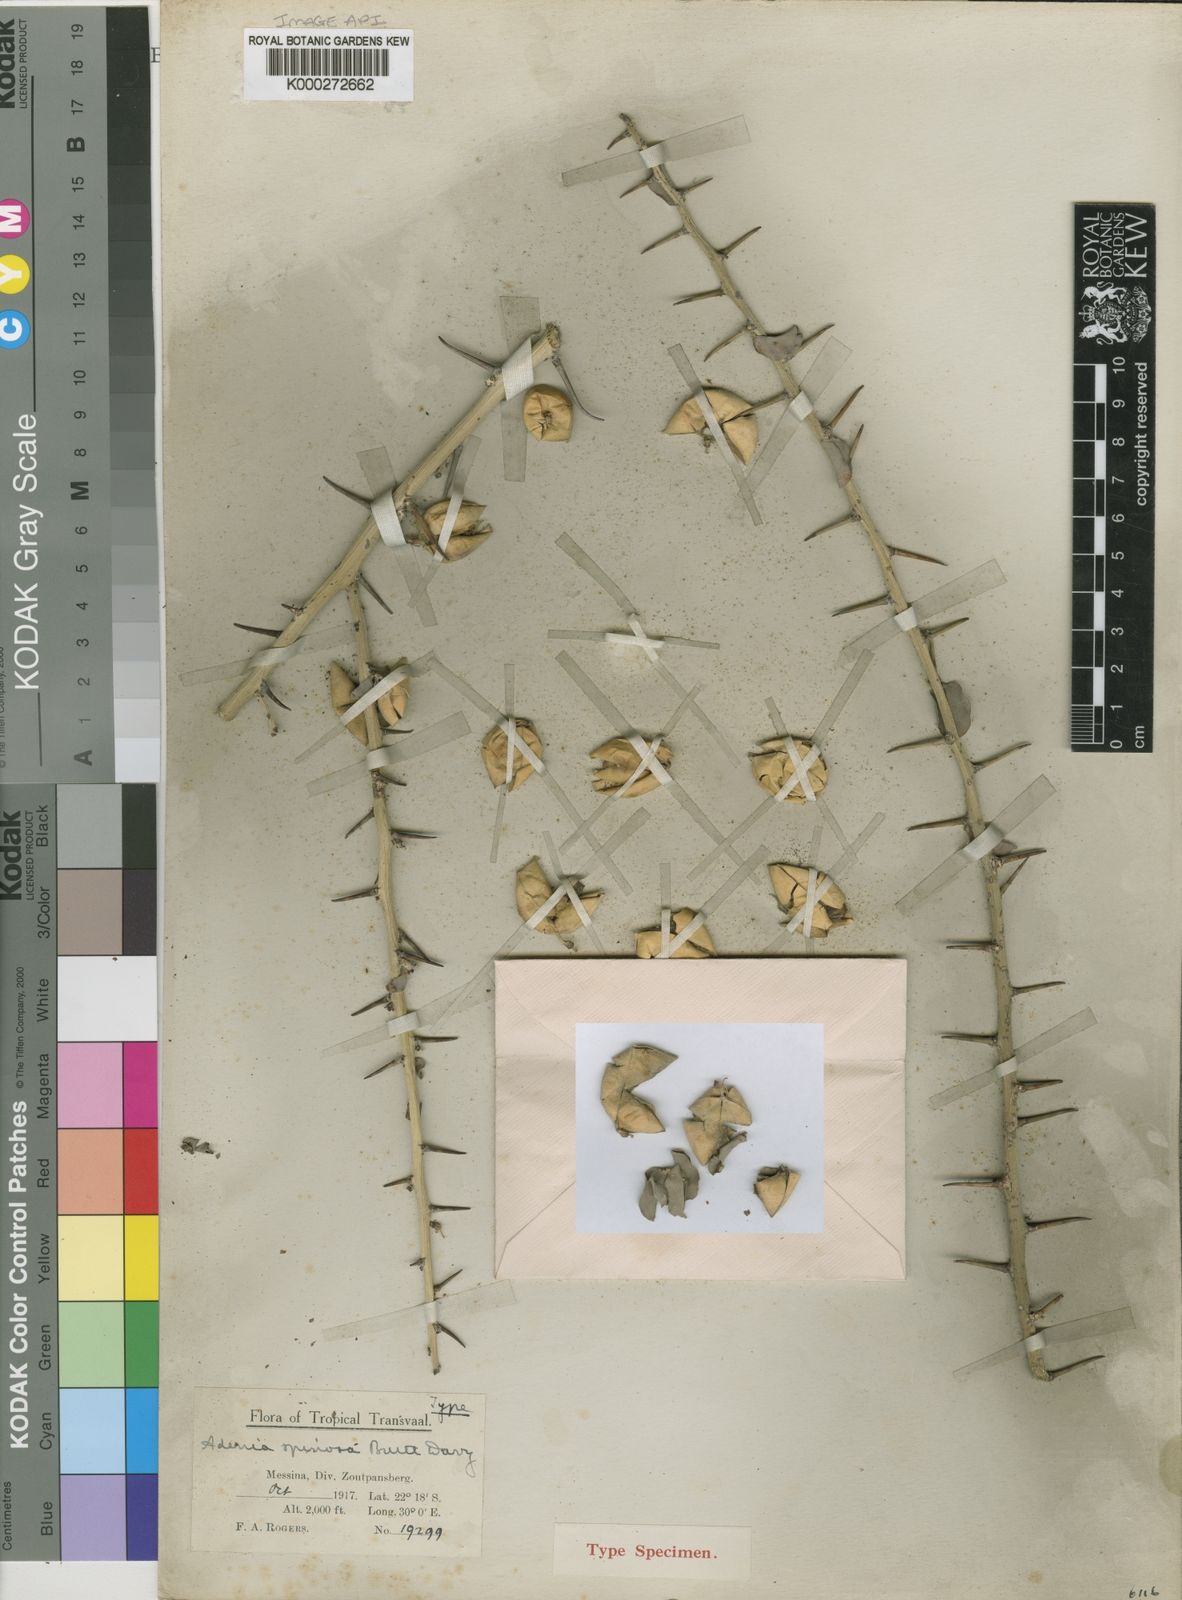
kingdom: Plantae
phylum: Tracheophyta
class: Magnoliopsida
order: Malpighiales
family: Passifloraceae
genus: Adenia
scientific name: Adenia spinosa
